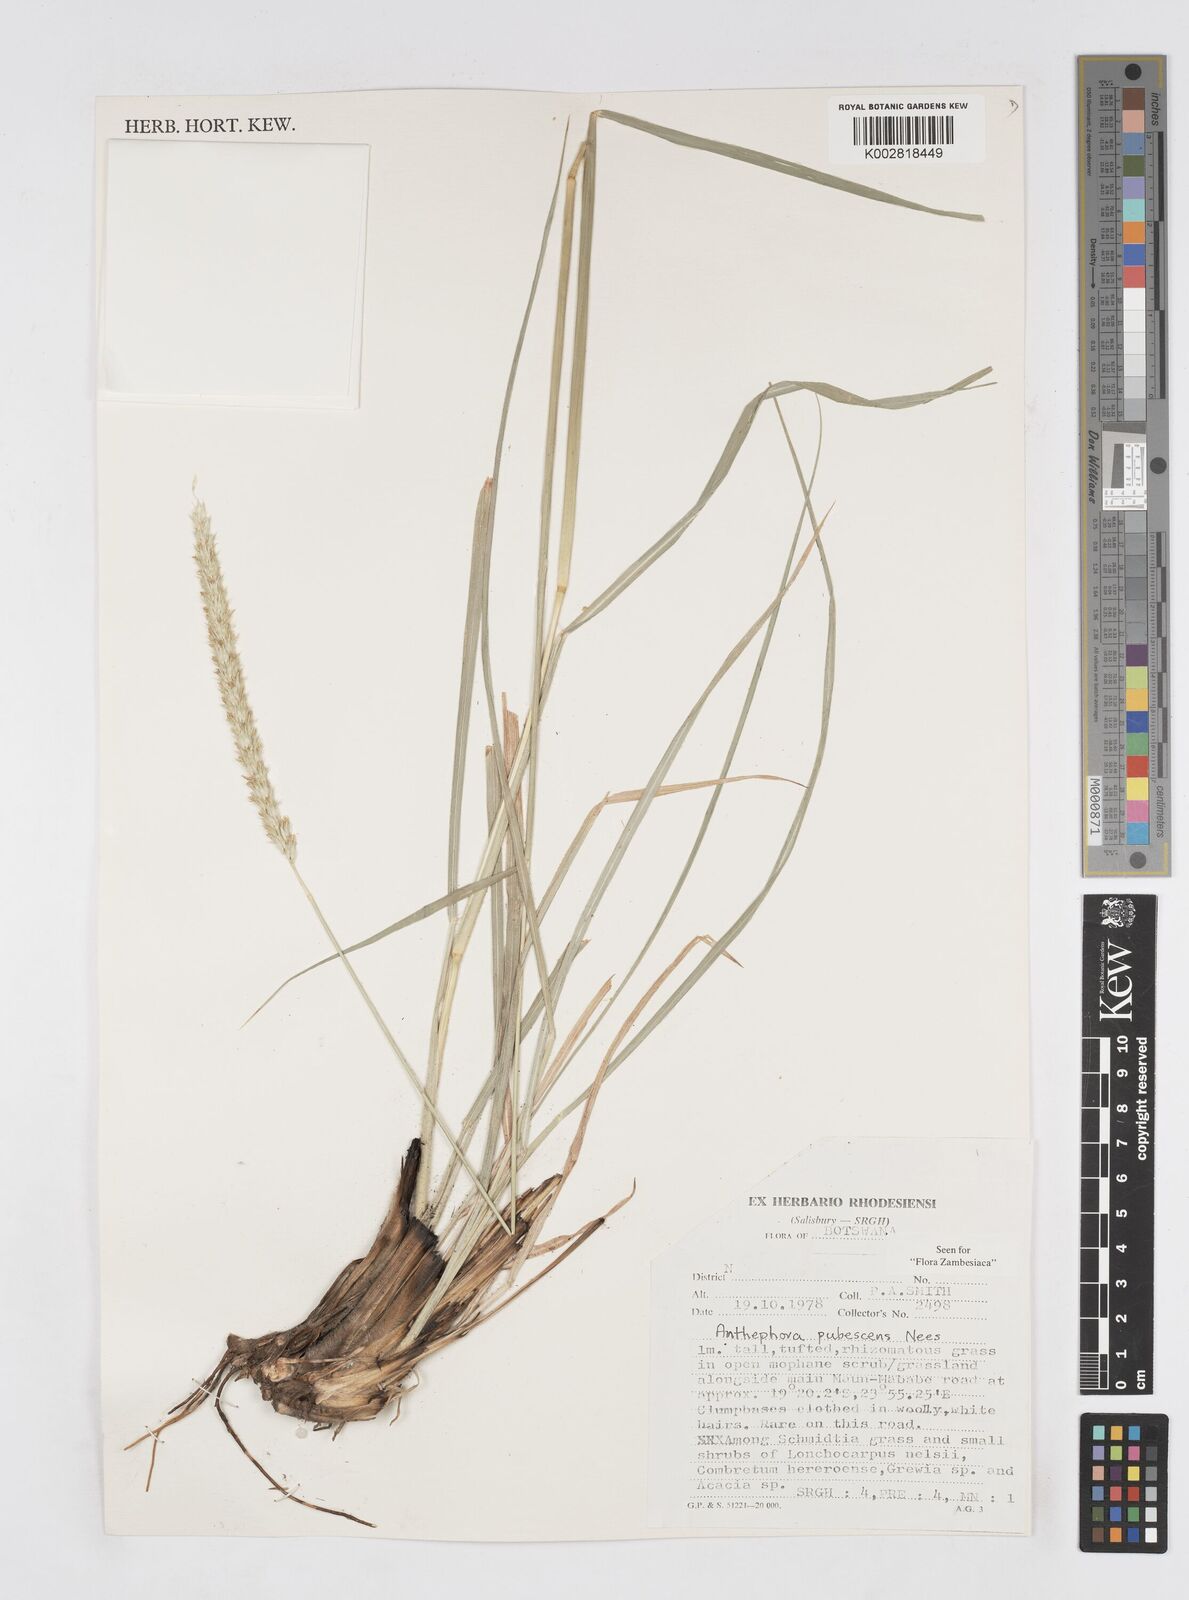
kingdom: Plantae
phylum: Tracheophyta
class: Liliopsida
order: Poales
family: Poaceae
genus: Anthephora
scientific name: Anthephora pubescens
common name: Wool grass
